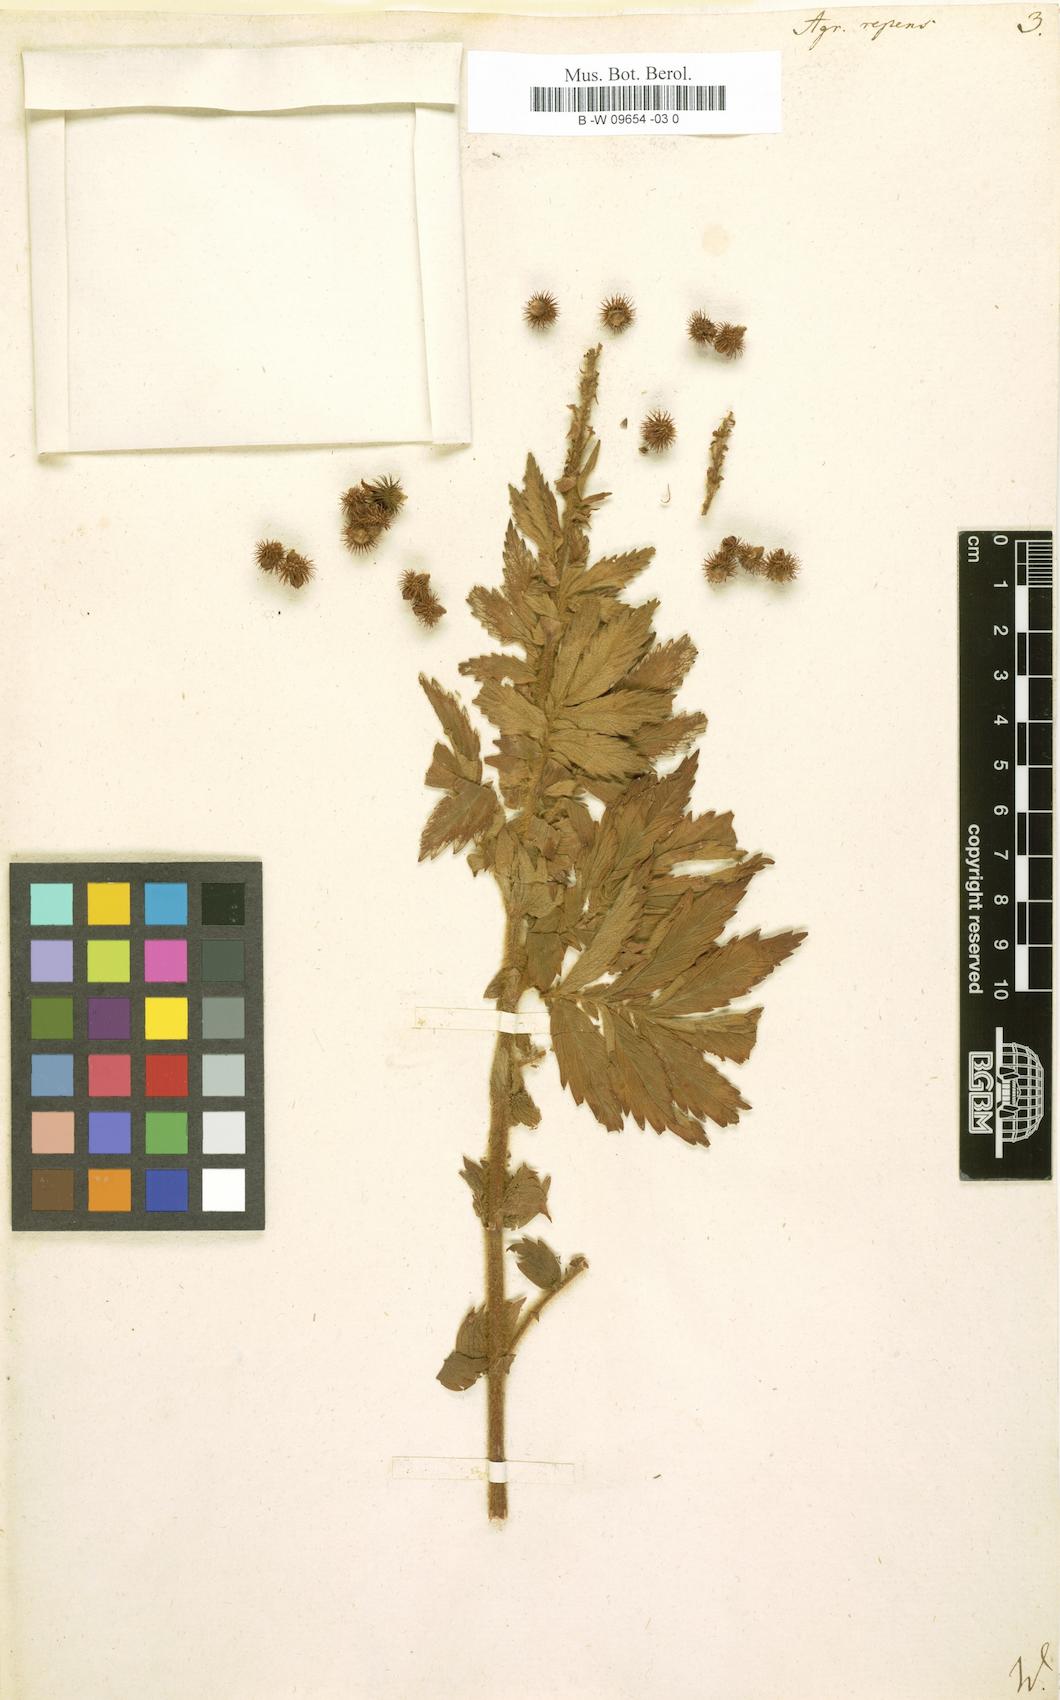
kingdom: Plantae
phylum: Tracheophyta
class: Magnoliopsida
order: Rosales
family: Rosaceae
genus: Agrimonia
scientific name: Agrimonia repens
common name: Creeping agrimony
